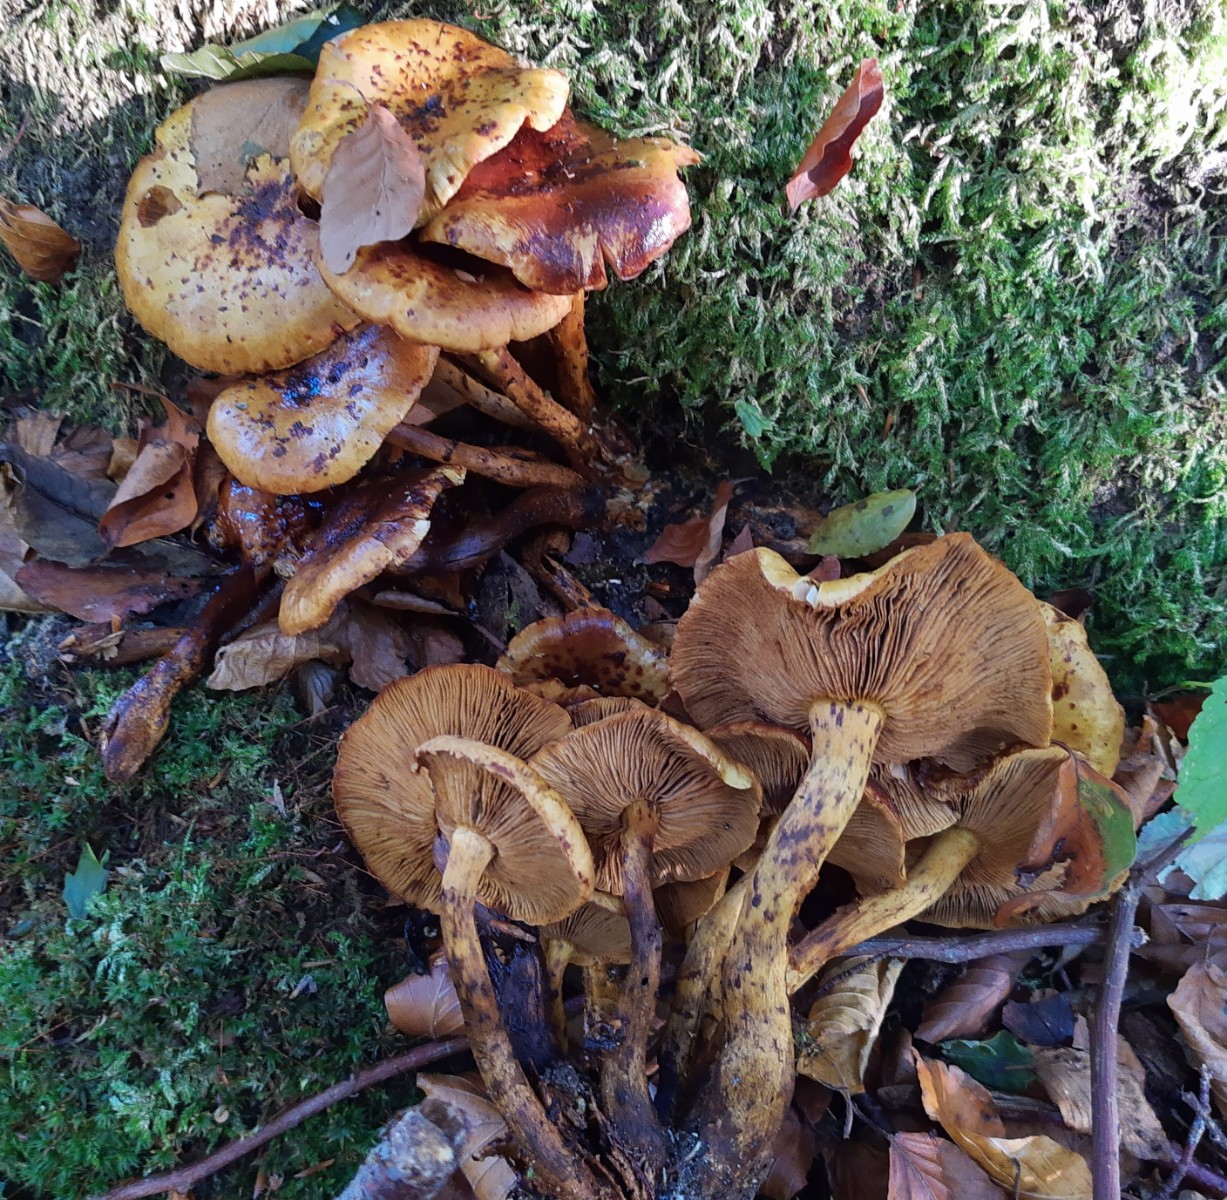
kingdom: Fungi
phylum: Basidiomycota
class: Agaricomycetes
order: Agaricales
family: Strophariaceae
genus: Pholiota
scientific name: Pholiota jahnii
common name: slimet skælhat
